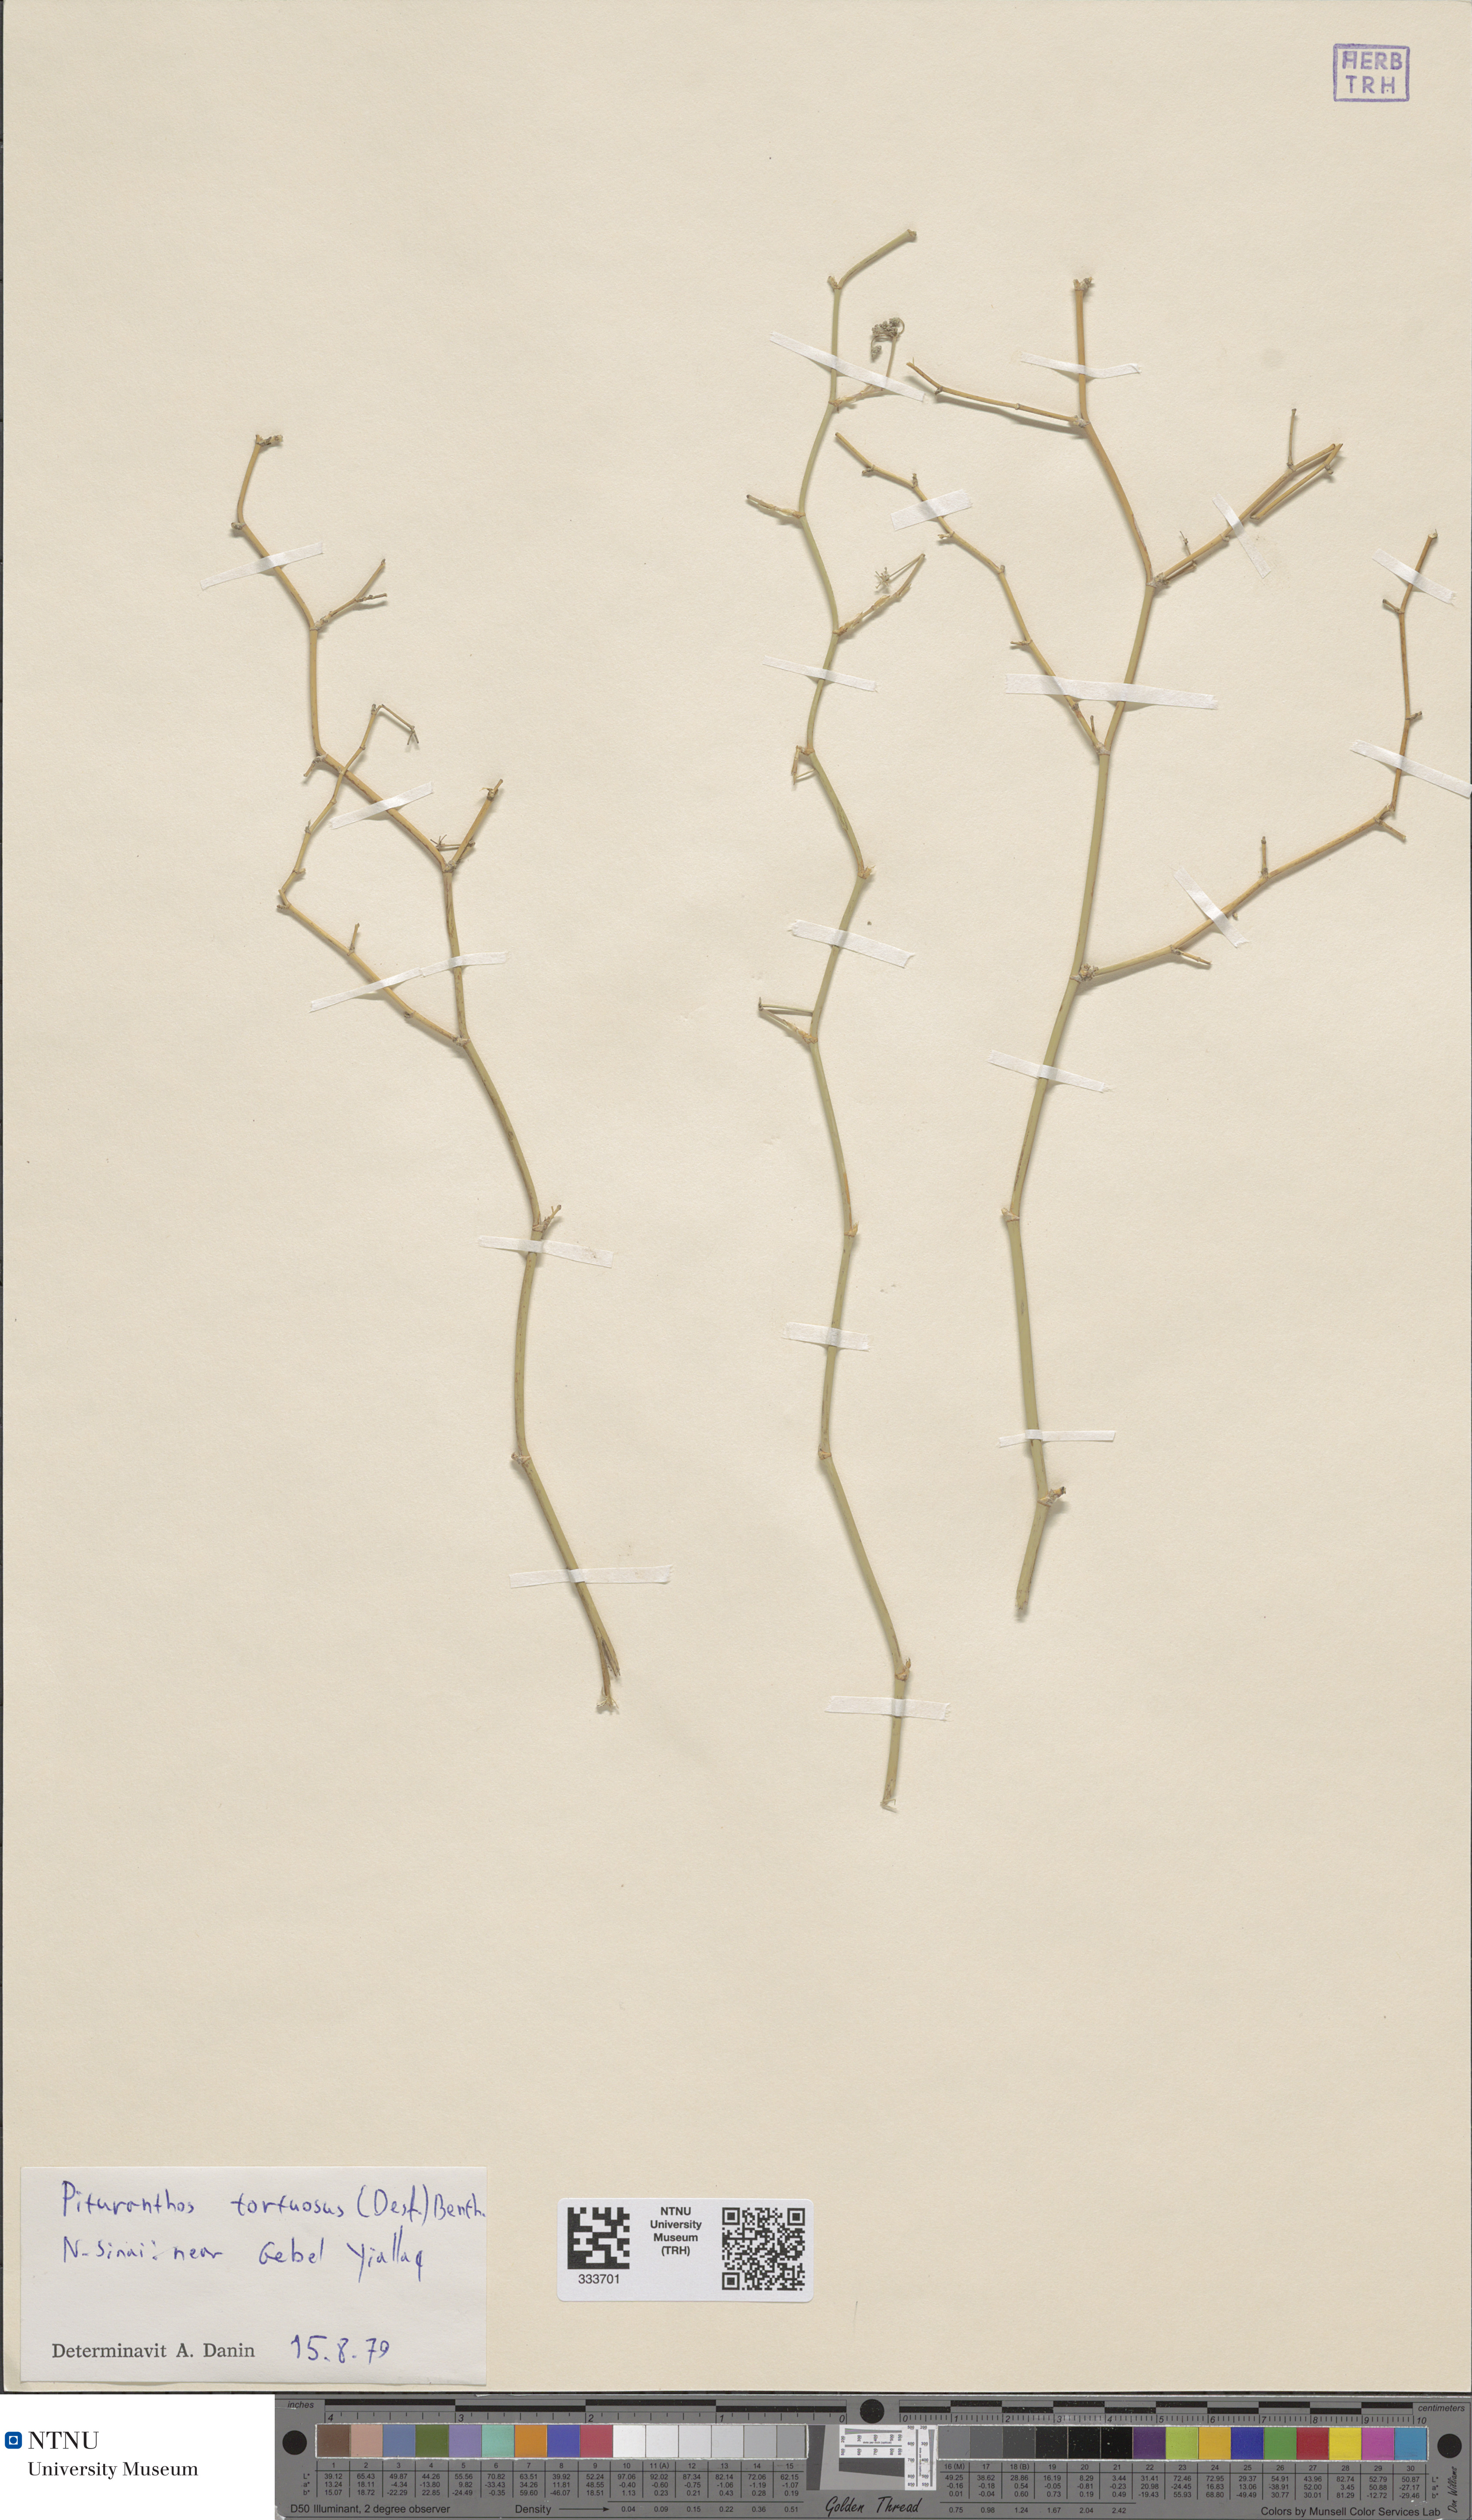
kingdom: Plantae
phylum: Tracheophyta
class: Magnoliopsida
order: Apiales
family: Apiaceae
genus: Deverra
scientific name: Deverra tortuosa
